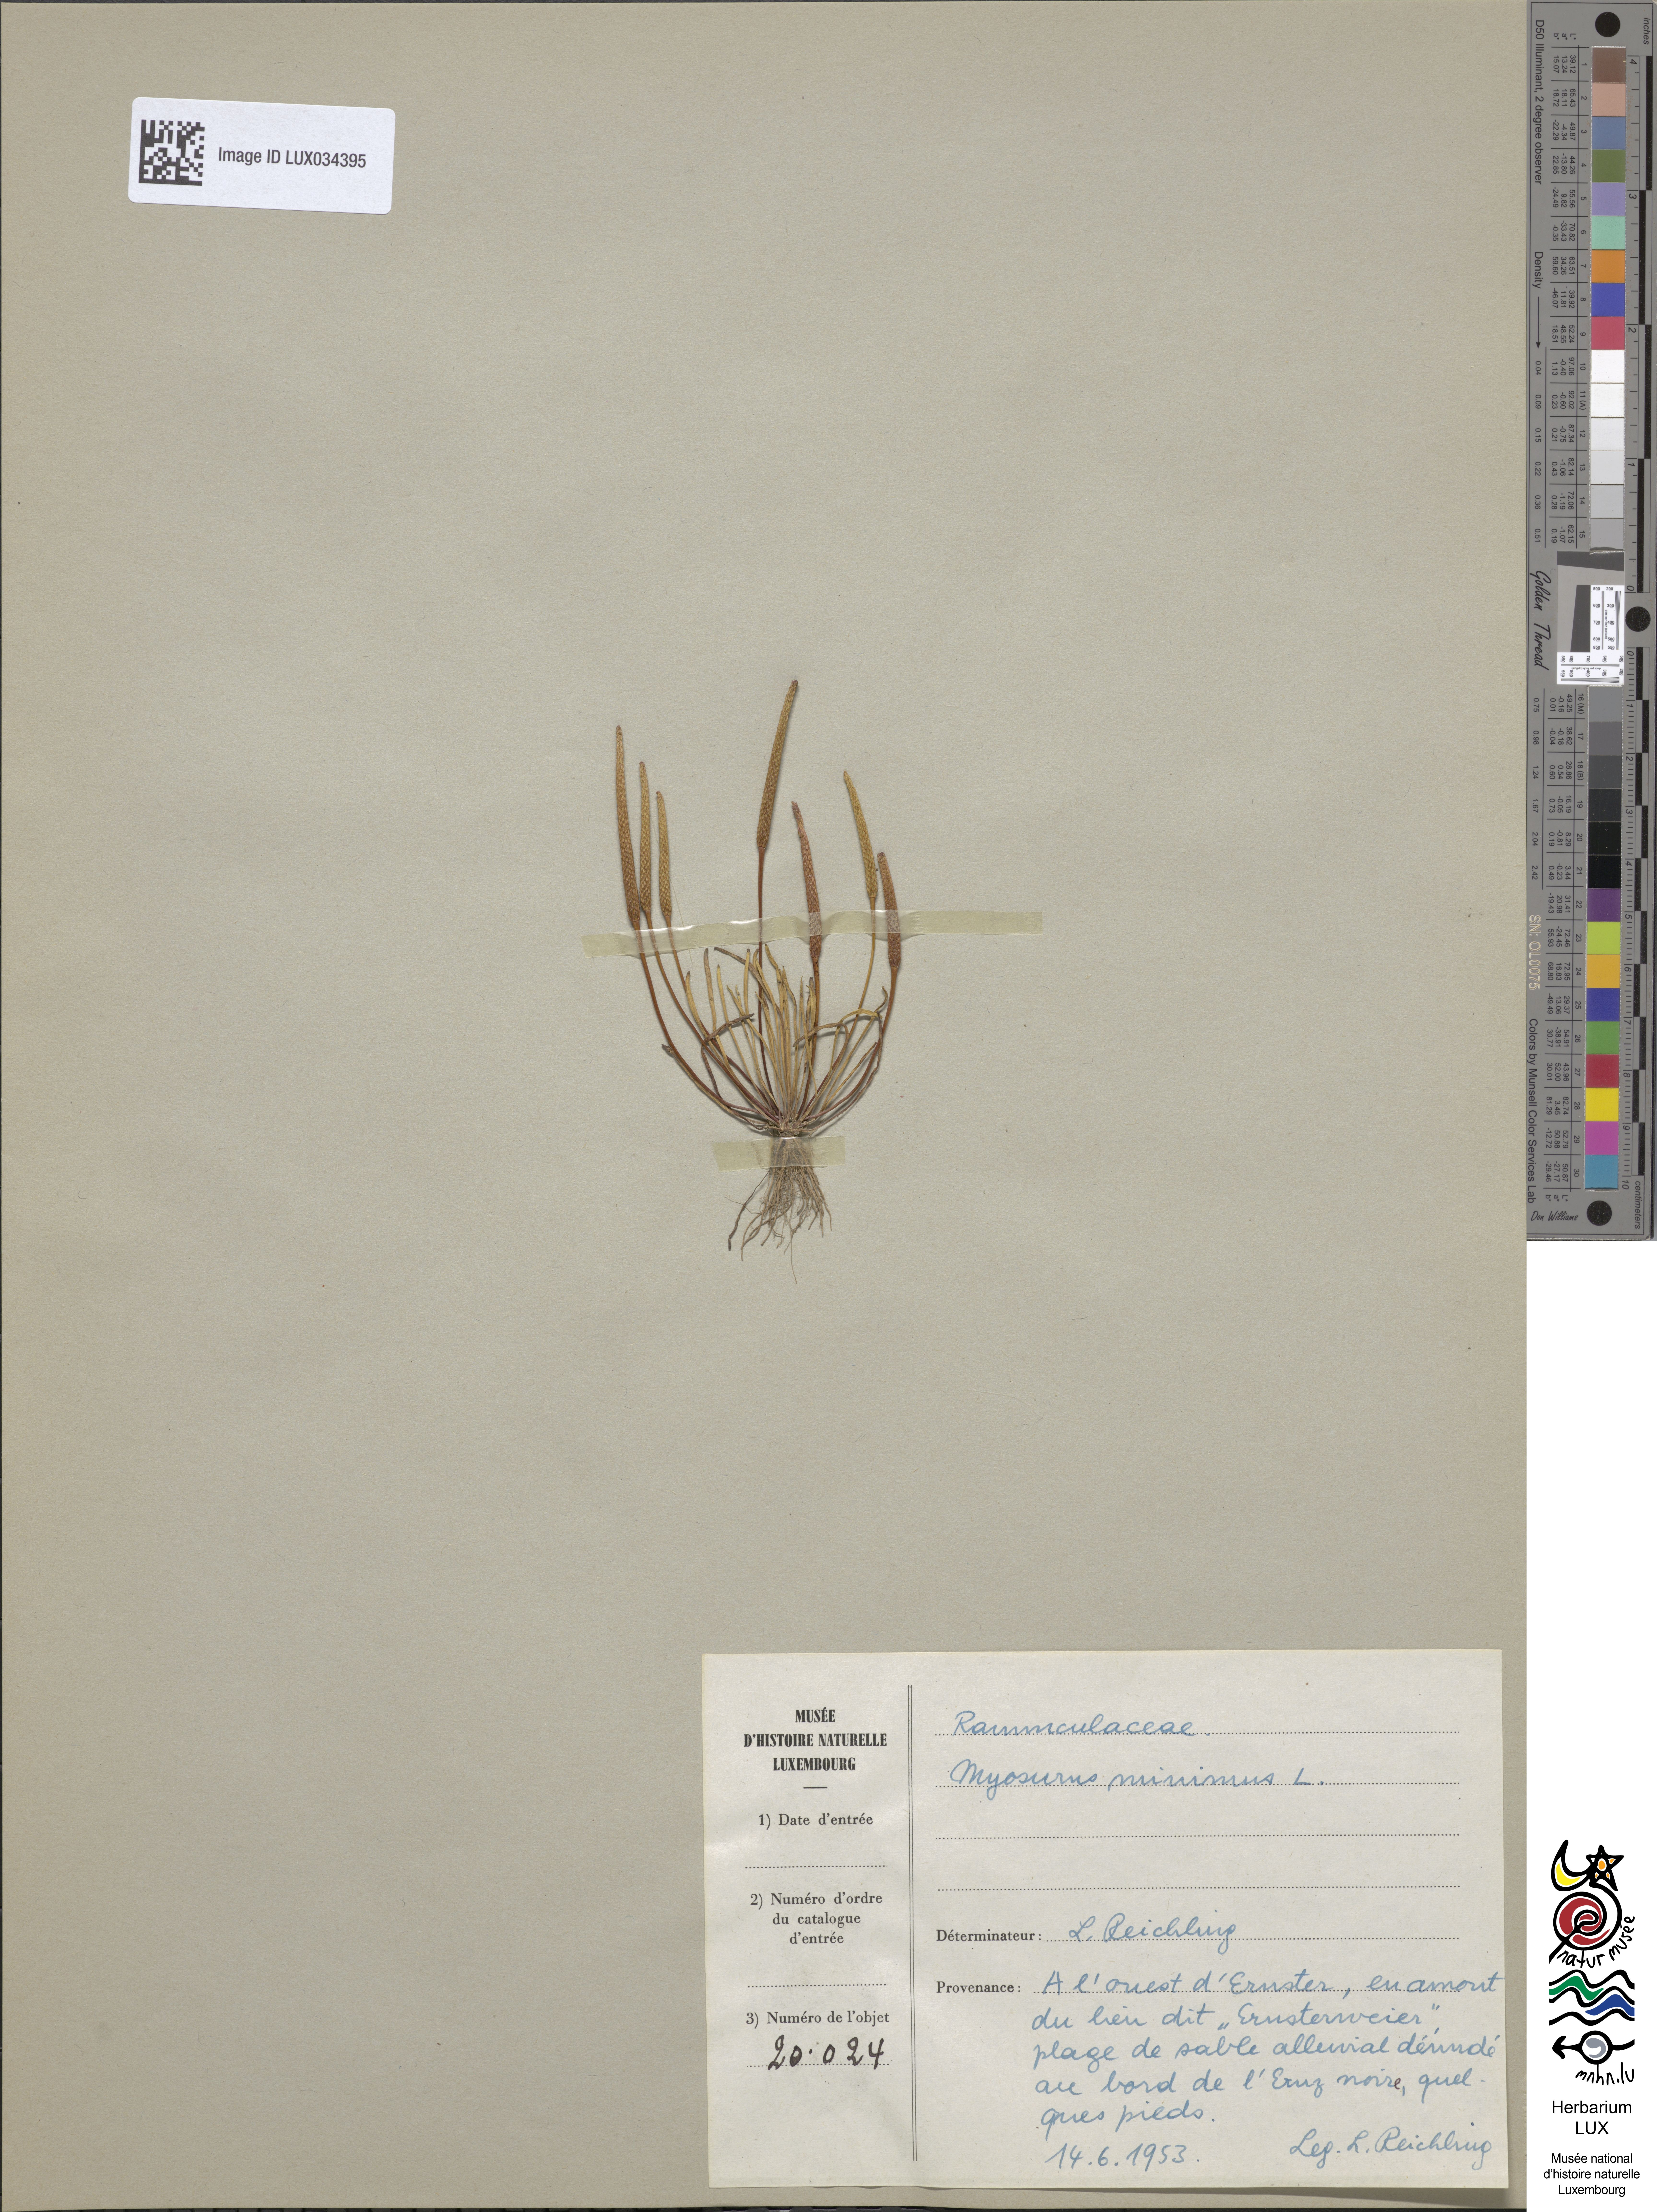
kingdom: Plantae
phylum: Tracheophyta
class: Magnoliopsida
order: Ranunculales
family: Ranunculaceae
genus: Myosurus
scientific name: Myosurus minimus
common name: Mousetail
